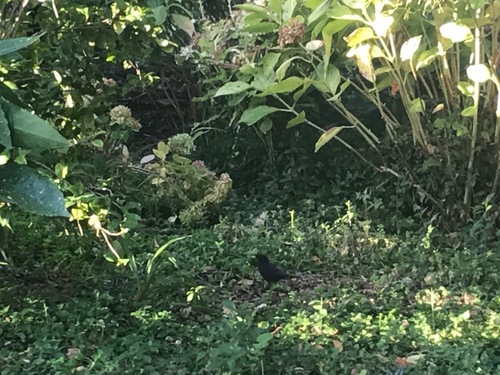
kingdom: Animalia
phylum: Chordata
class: Aves
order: Passeriformes
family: Turdidae
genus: Turdus
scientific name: Turdus merula
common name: Common blackbird
